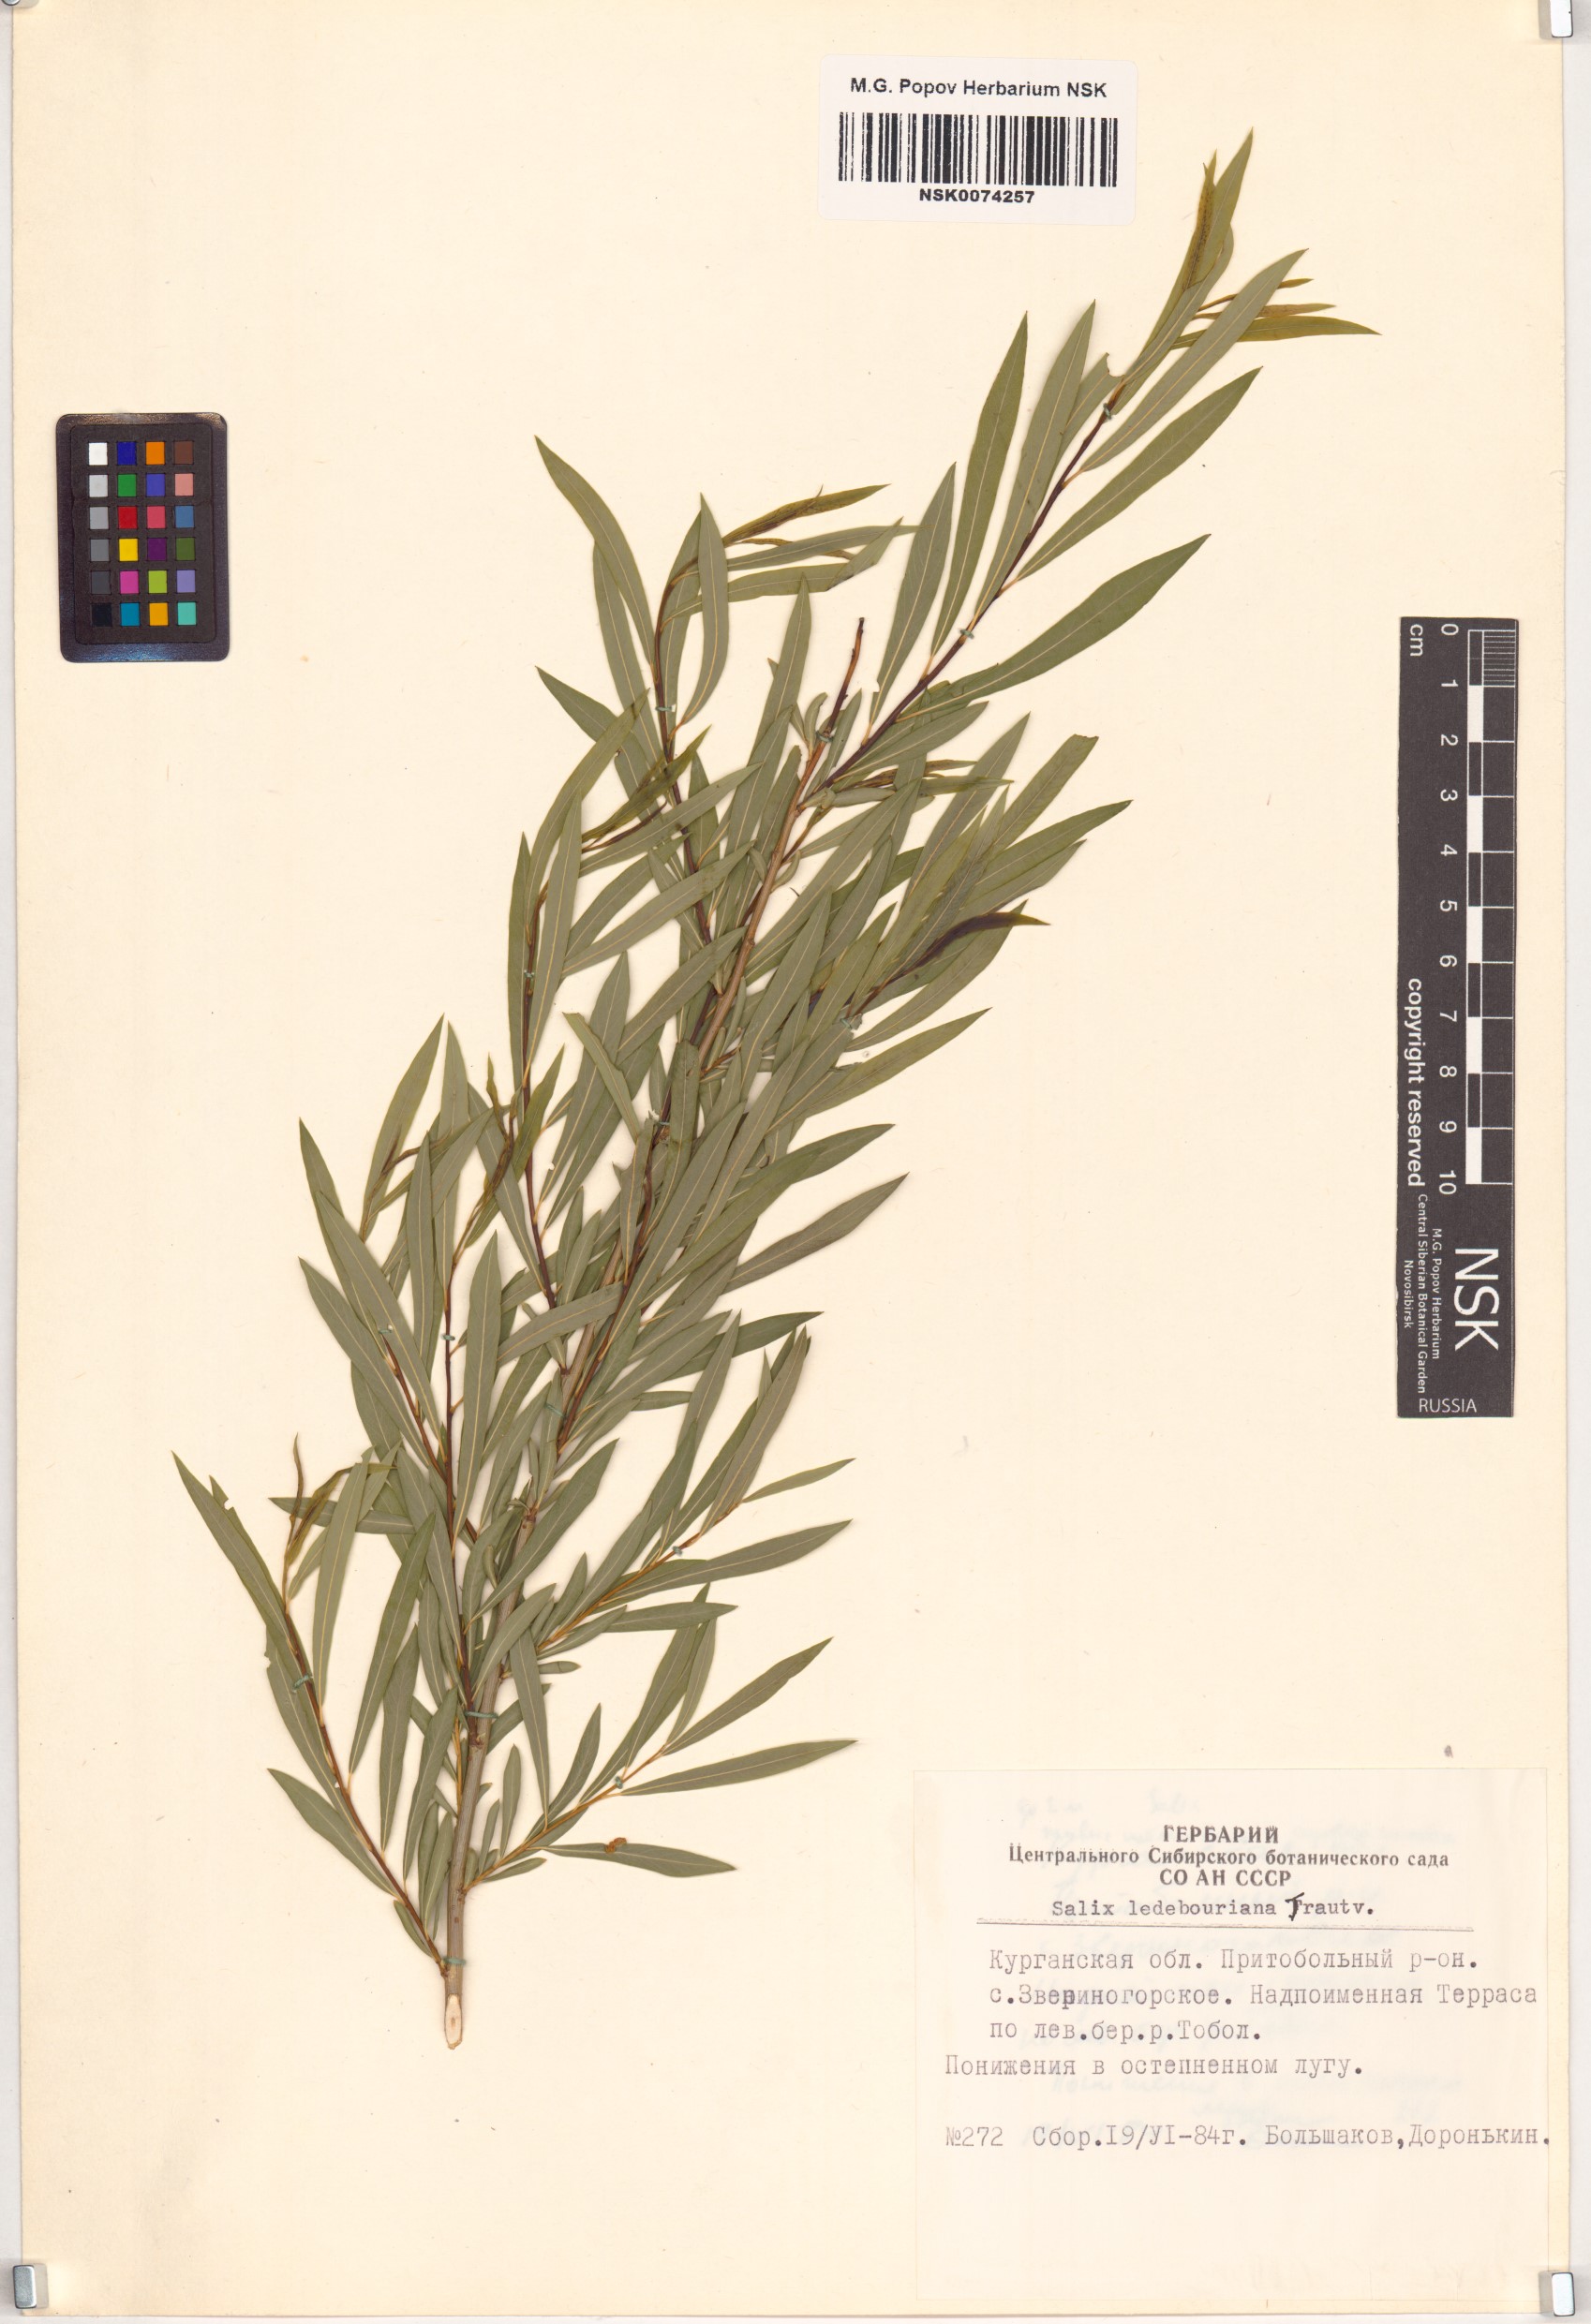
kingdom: Plantae
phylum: Tracheophyta
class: Magnoliopsida
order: Malpighiales
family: Salicaceae
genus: Salix
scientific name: Salix ledebouriana
